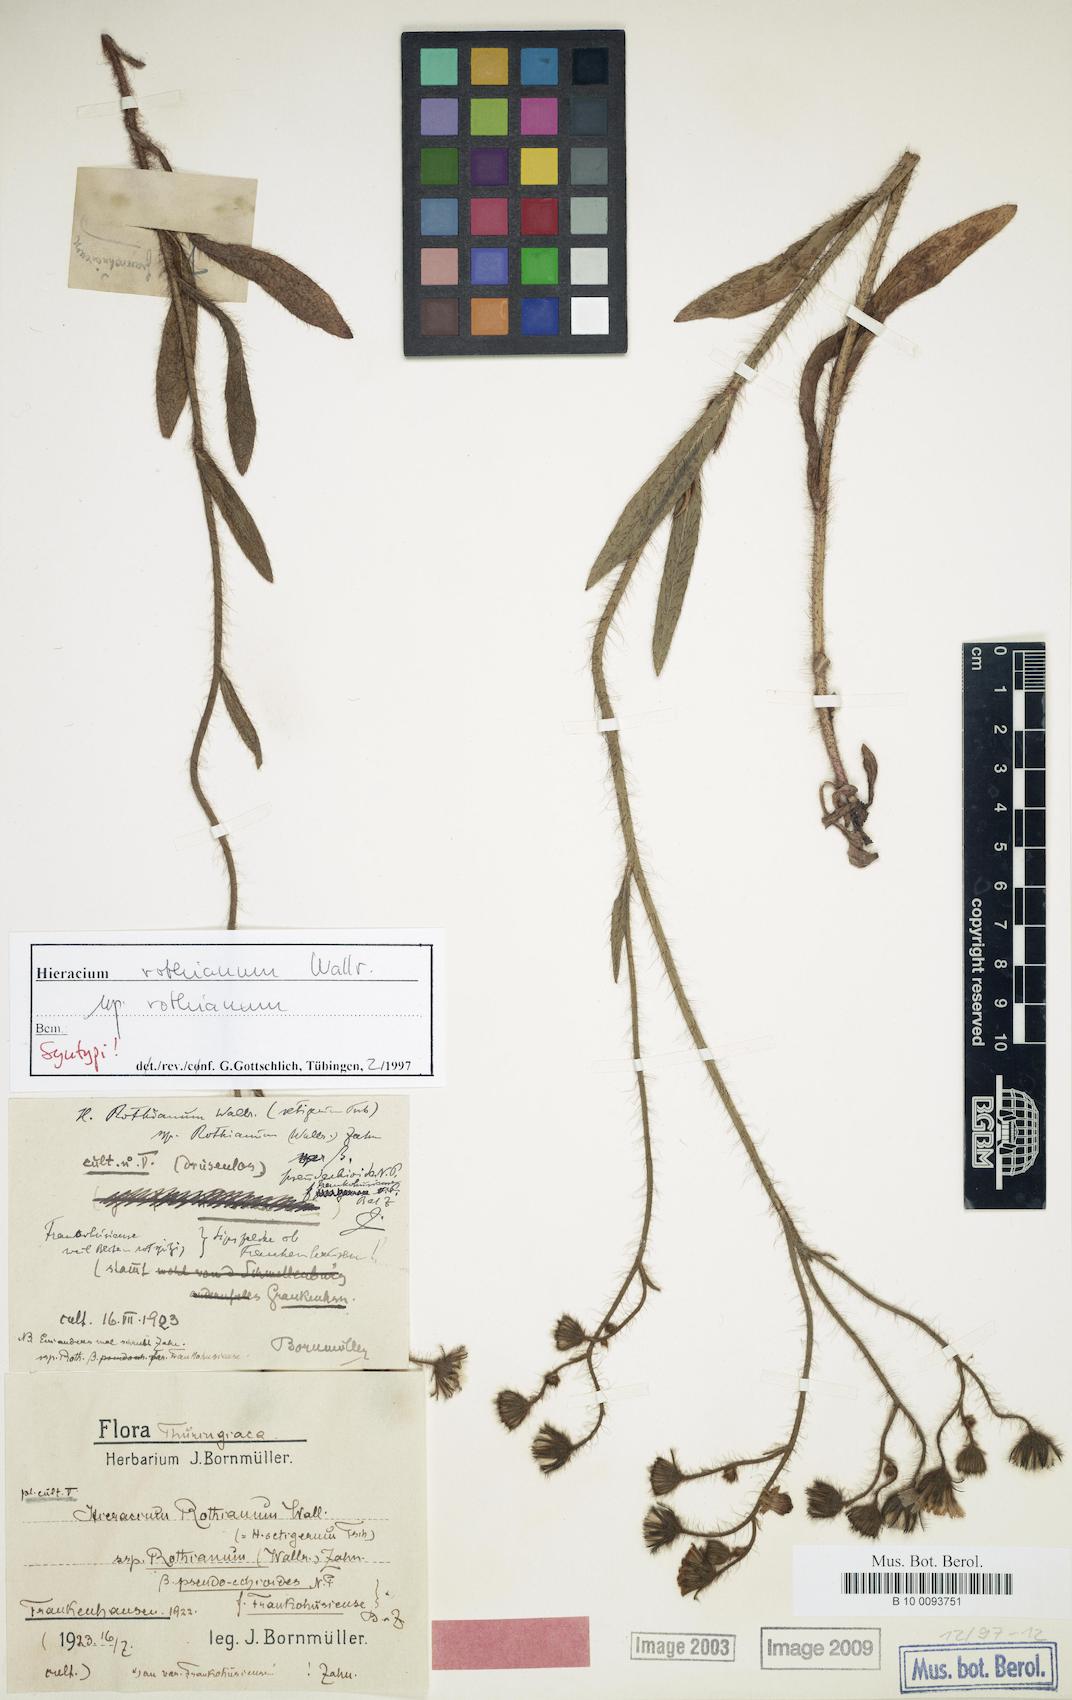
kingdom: Plantae
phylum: Tracheophyta
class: Magnoliopsida
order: Asterales
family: Asteraceae
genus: Hieracium
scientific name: Hieracium rothianum
